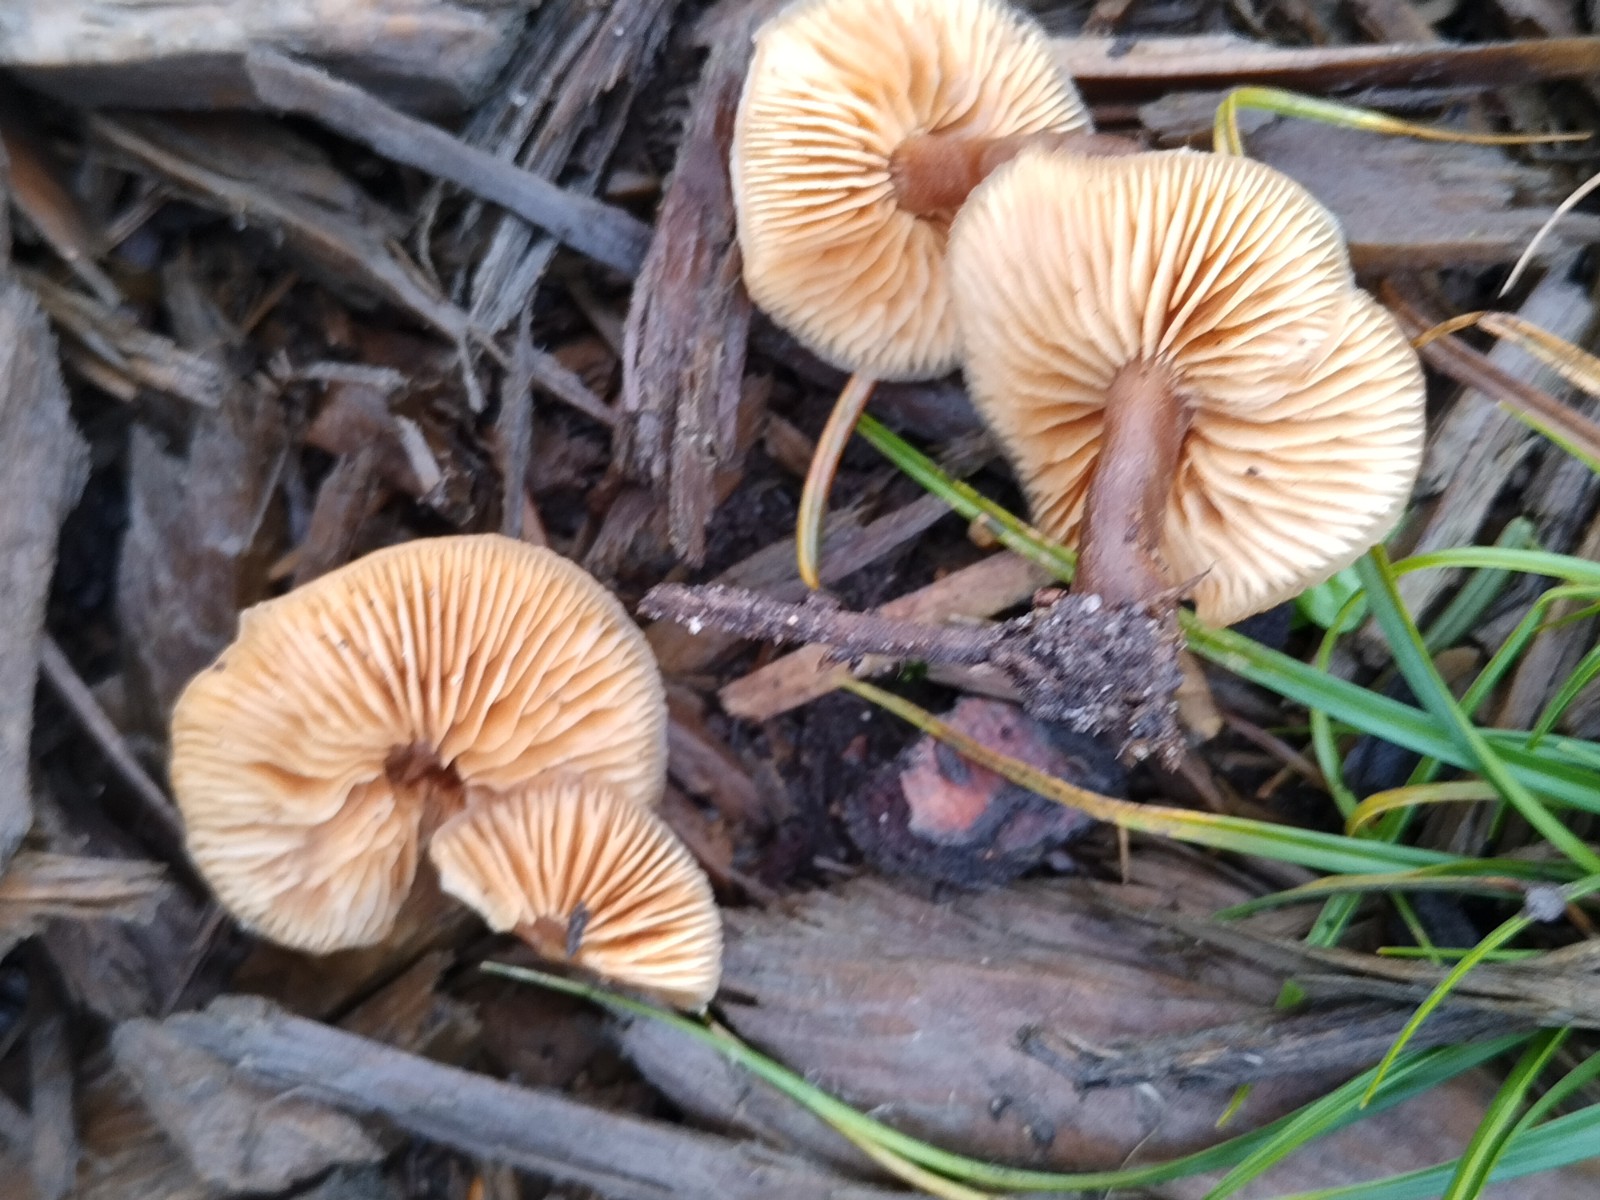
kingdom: Fungi
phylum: Basidiomycota
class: Agaricomycetes
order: Agaricales
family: Macrocystidiaceae
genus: Macrocystidia
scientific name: Macrocystidia cucumis
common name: agurkehat
